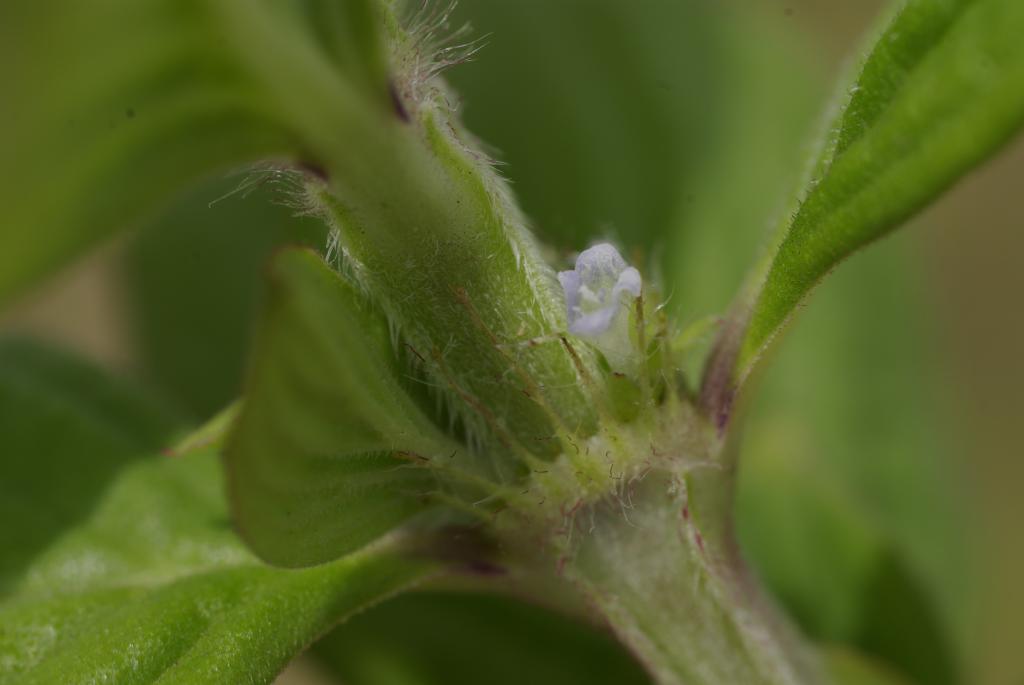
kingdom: Plantae
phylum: Tracheophyta
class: Magnoliopsida
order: Gentianales
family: Rubiaceae
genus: Spermacoce
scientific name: Spermacoce latifolia
